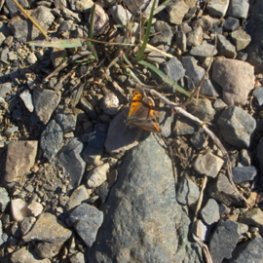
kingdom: Animalia
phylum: Arthropoda
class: Insecta
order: Lepidoptera
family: Lycaenidae
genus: Lycaena
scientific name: Lycaena phlaeas
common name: American Copper
